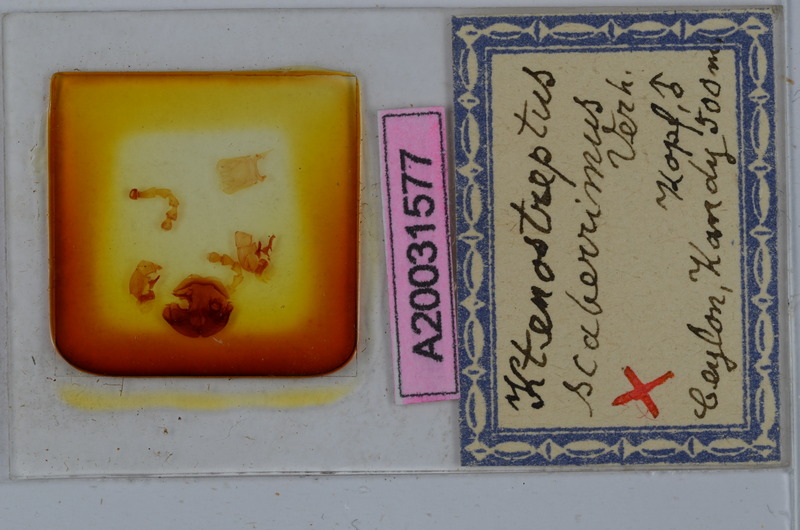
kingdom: Animalia
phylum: Arthropoda
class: Diplopoda
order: Spirostreptida
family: Harpagophoridae
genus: Ktenostreptus
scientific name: Ktenostreptus costulatus
